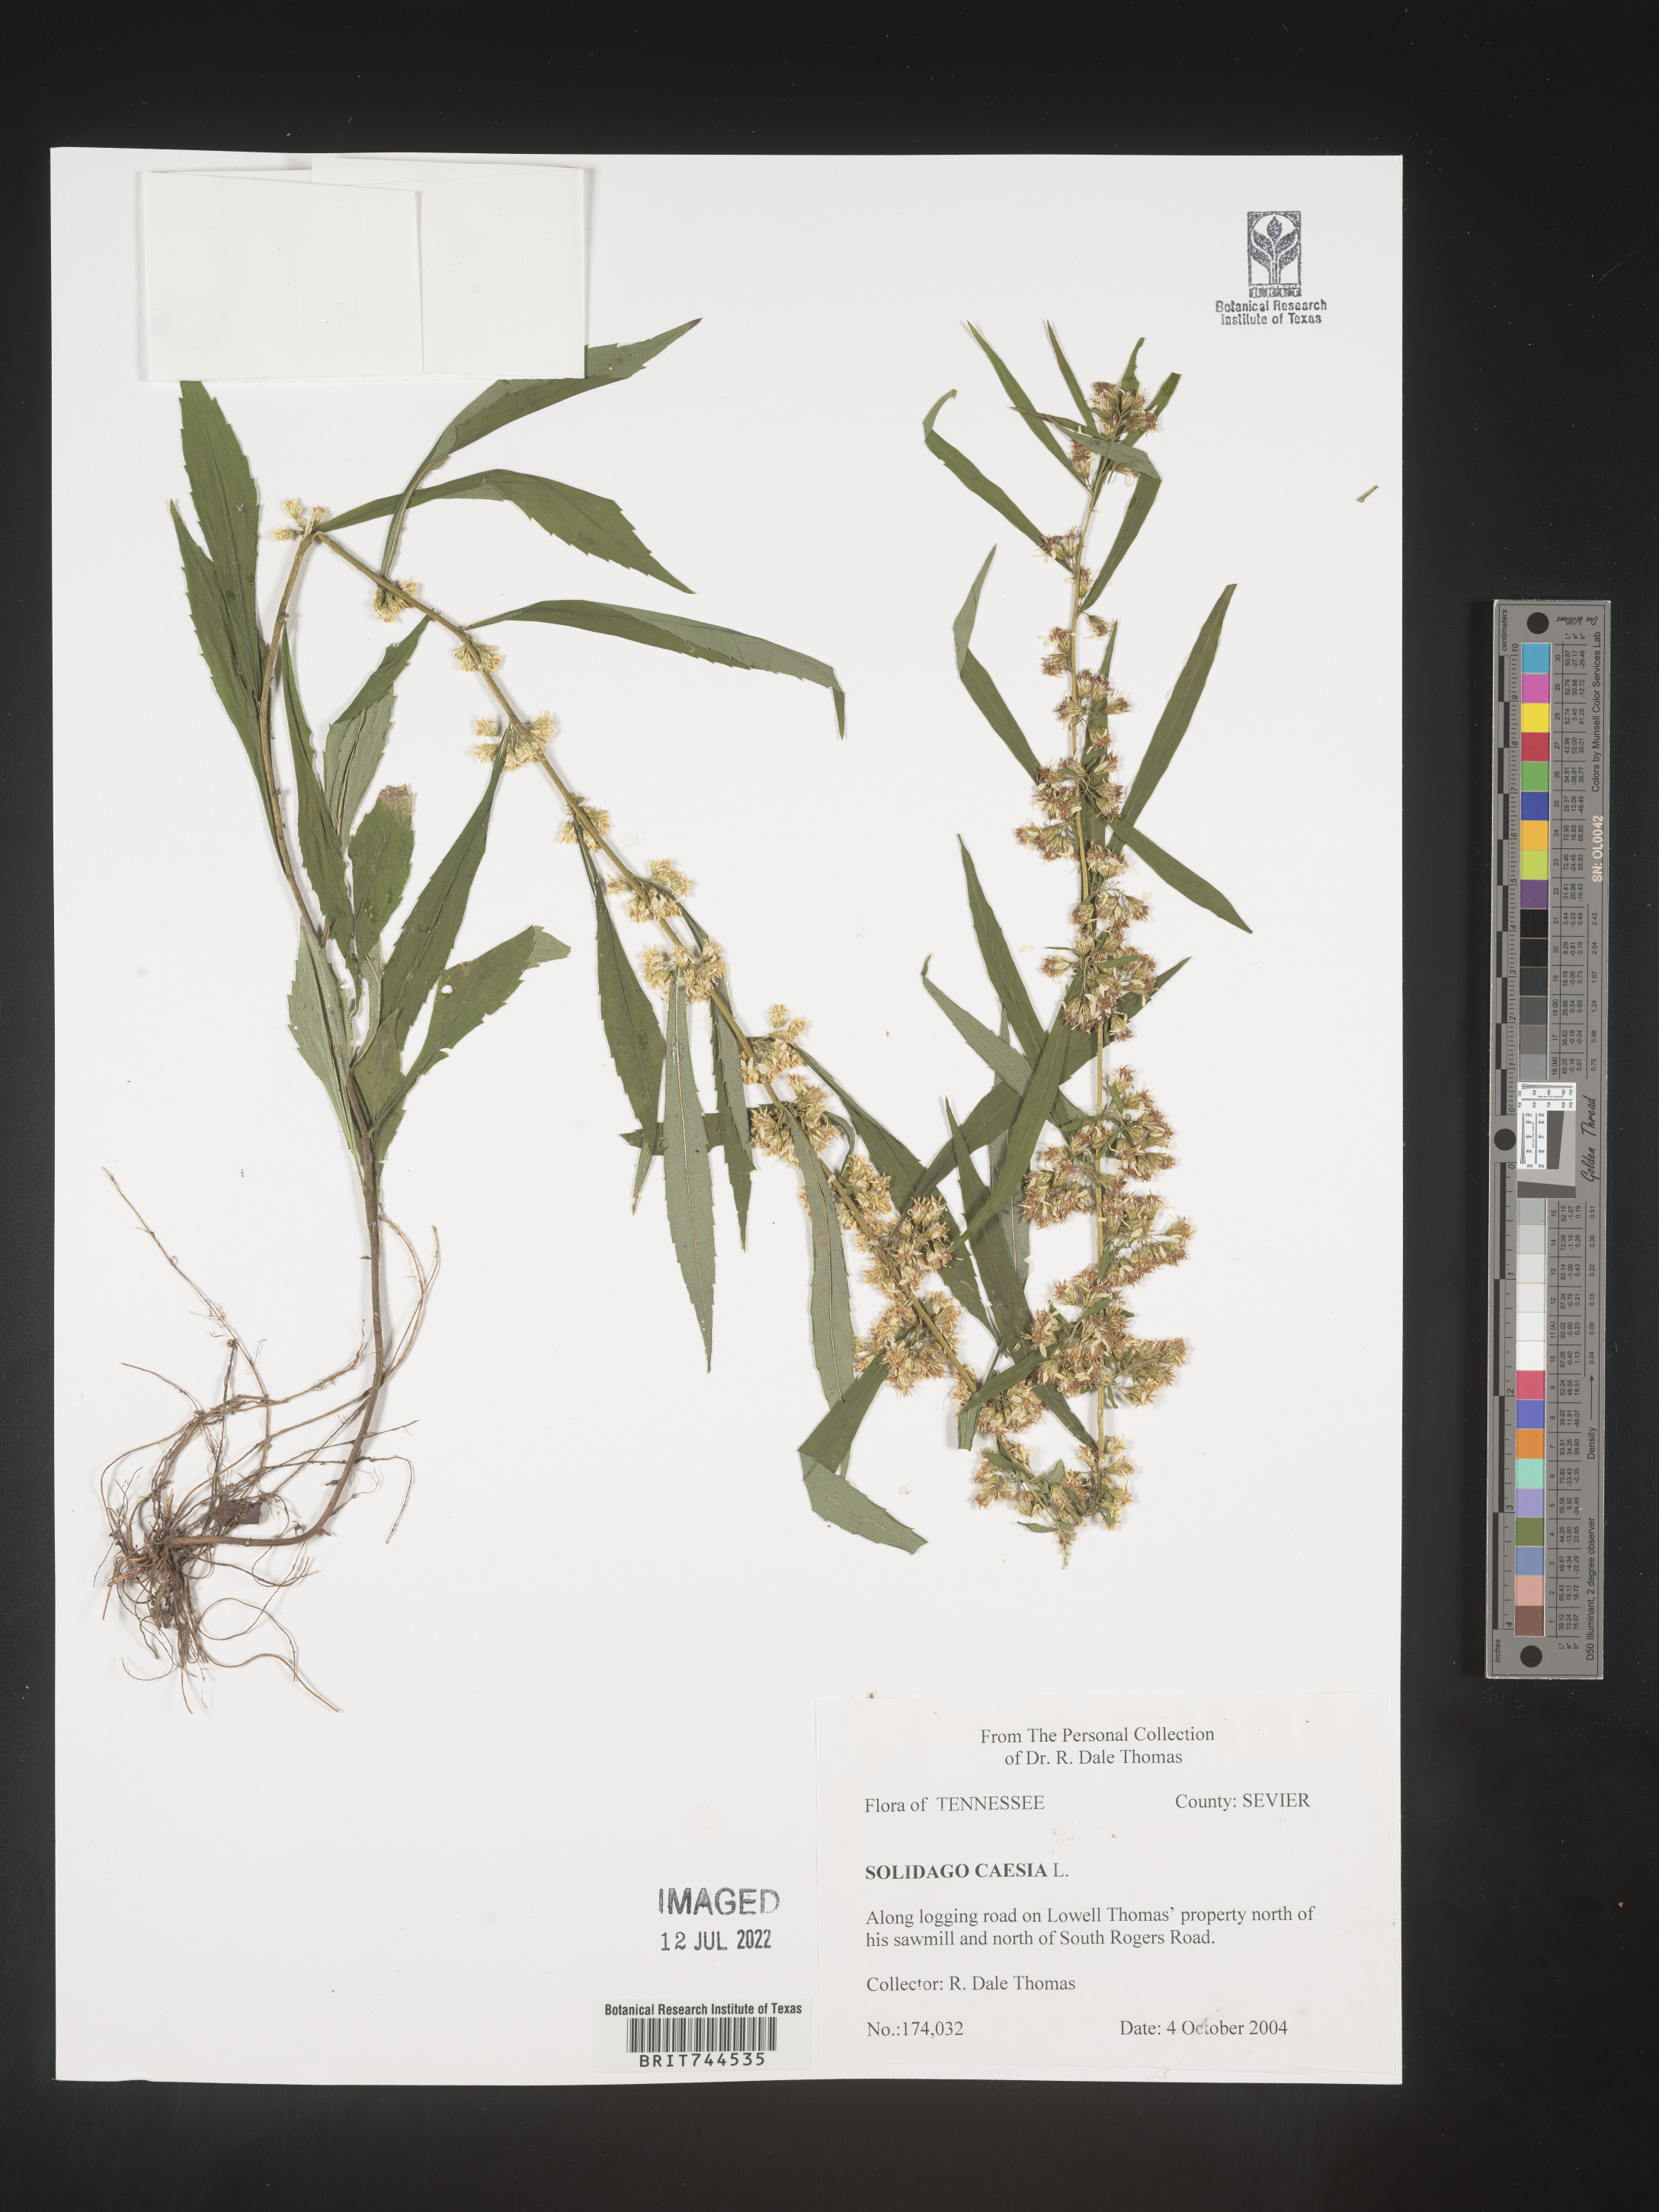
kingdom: Plantae
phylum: Tracheophyta
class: Magnoliopsida
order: Asterales
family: Asteraceae
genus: Solidago
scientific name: Solidago caesia
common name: Woodland goldenrod
